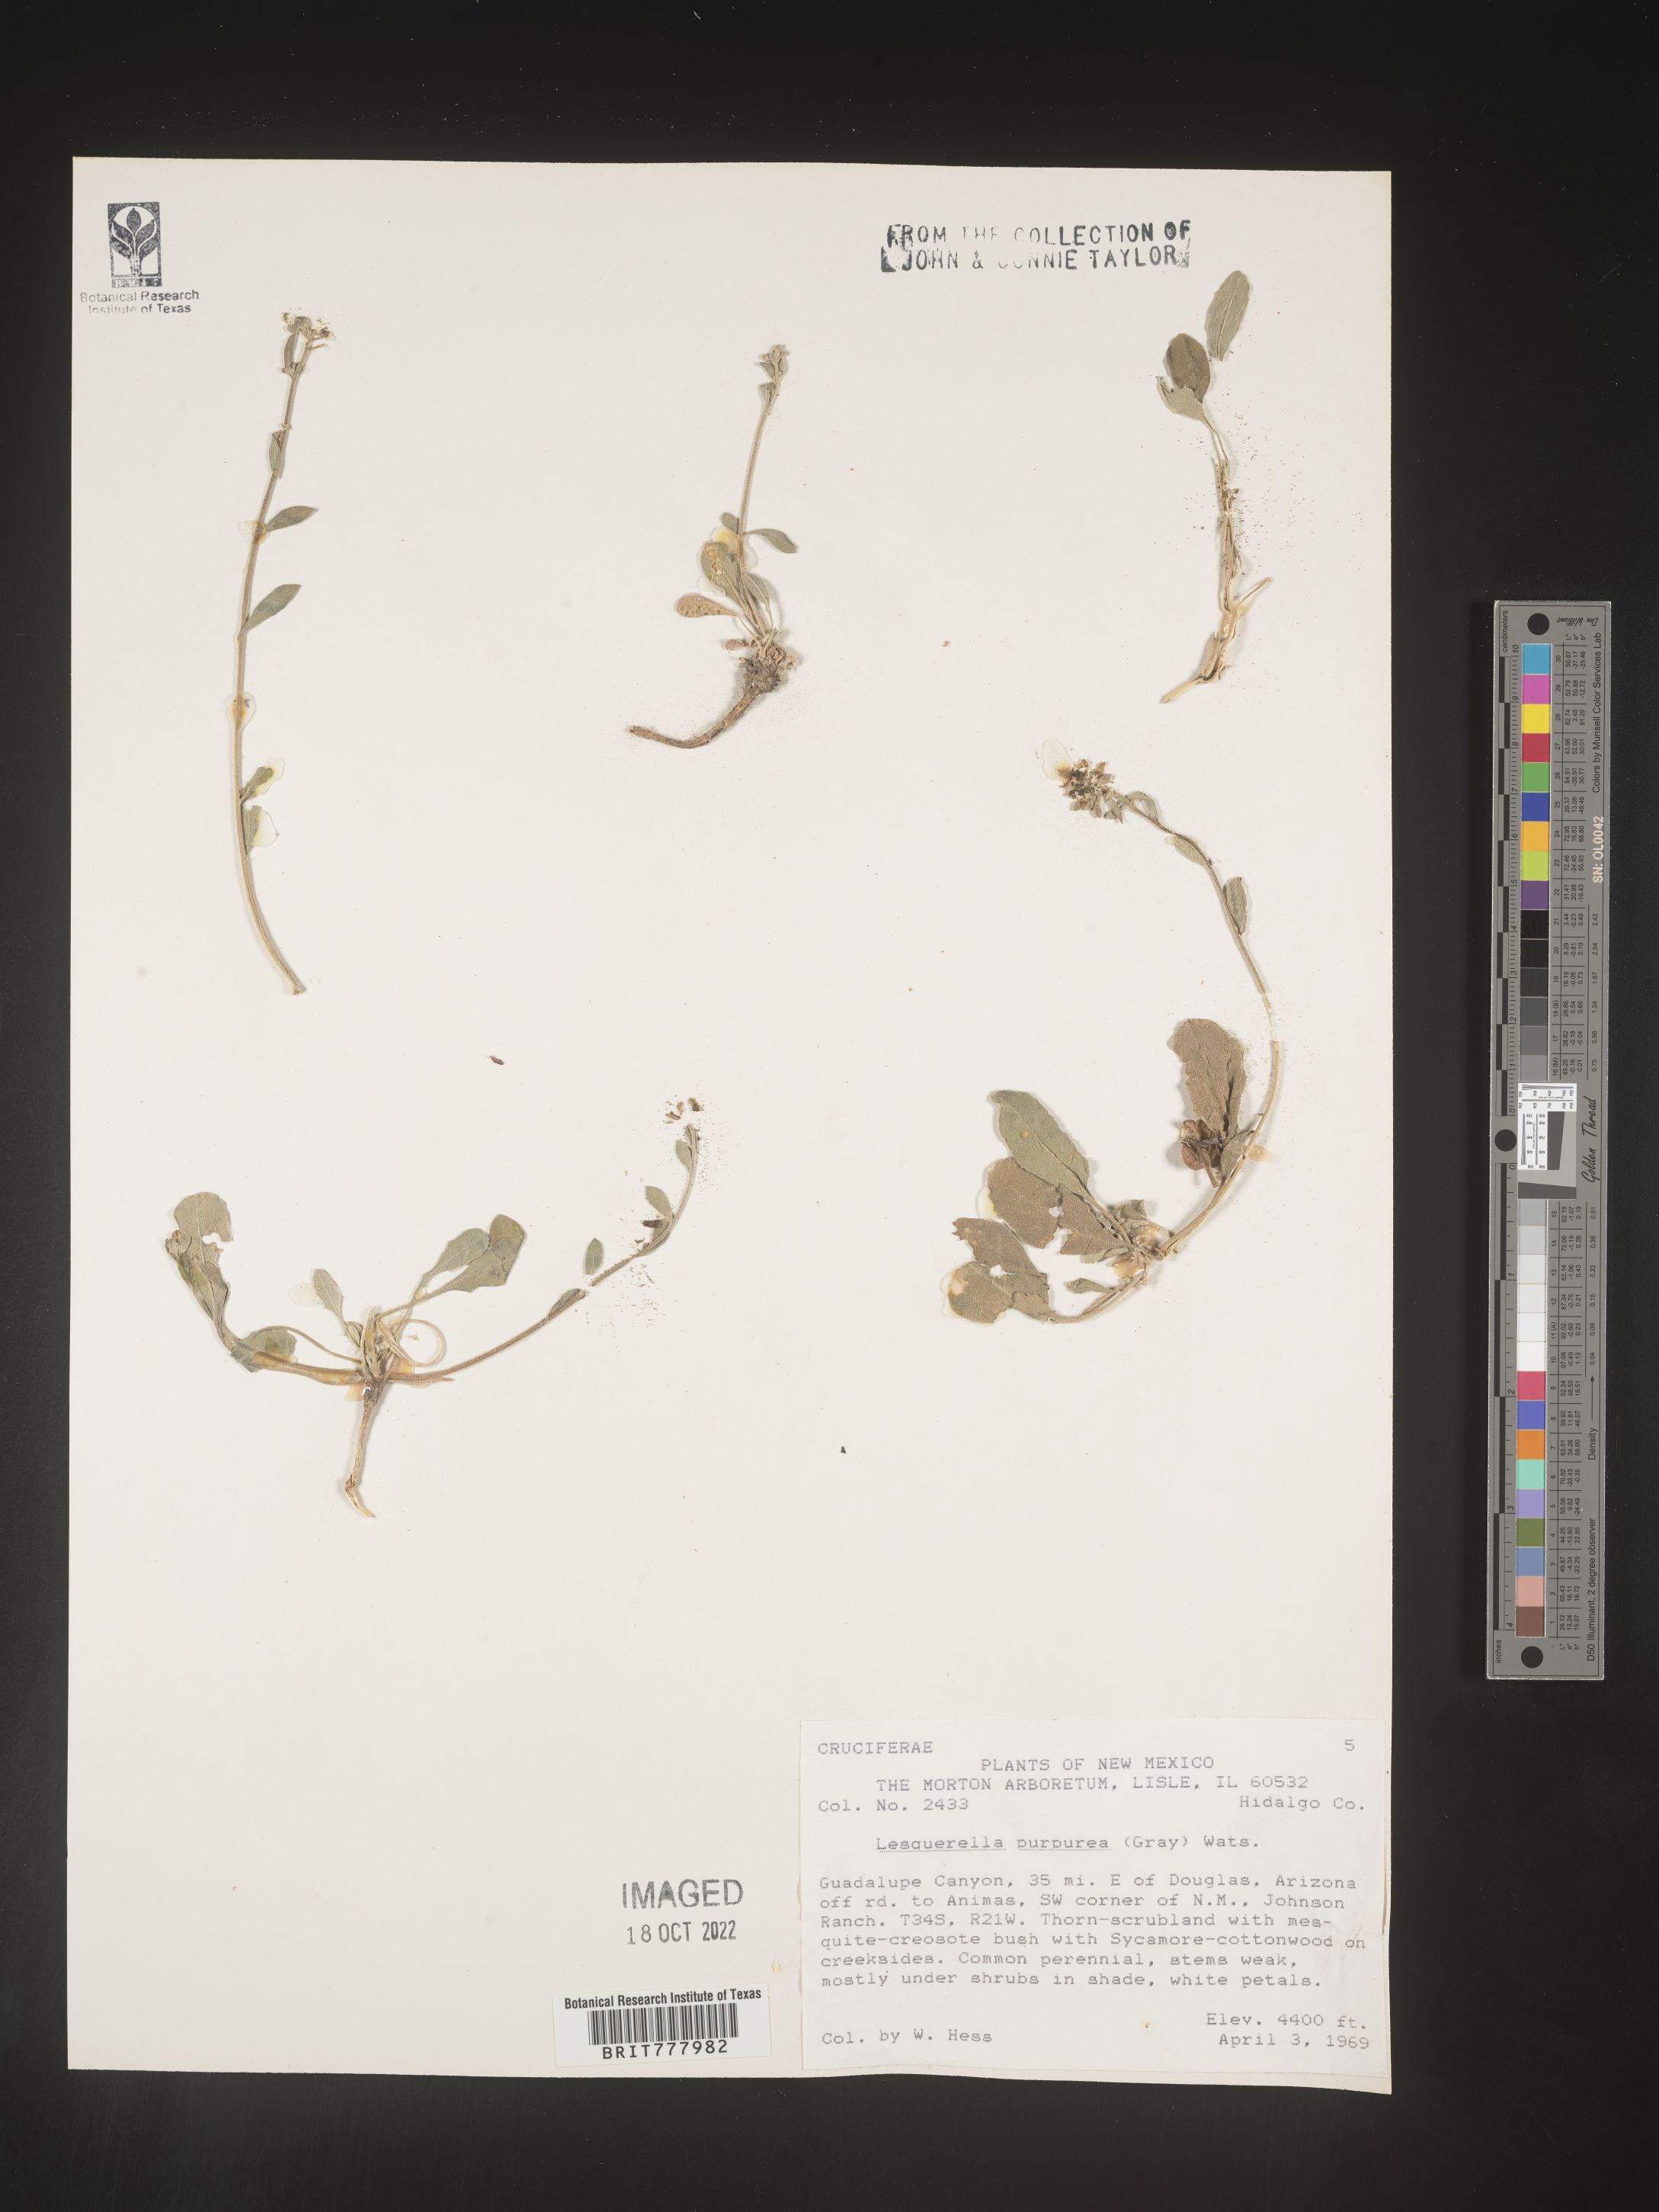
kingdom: Chromista
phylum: Cercozoa
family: Psammonobiotidae
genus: Lesquerella
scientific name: Lesquerella
